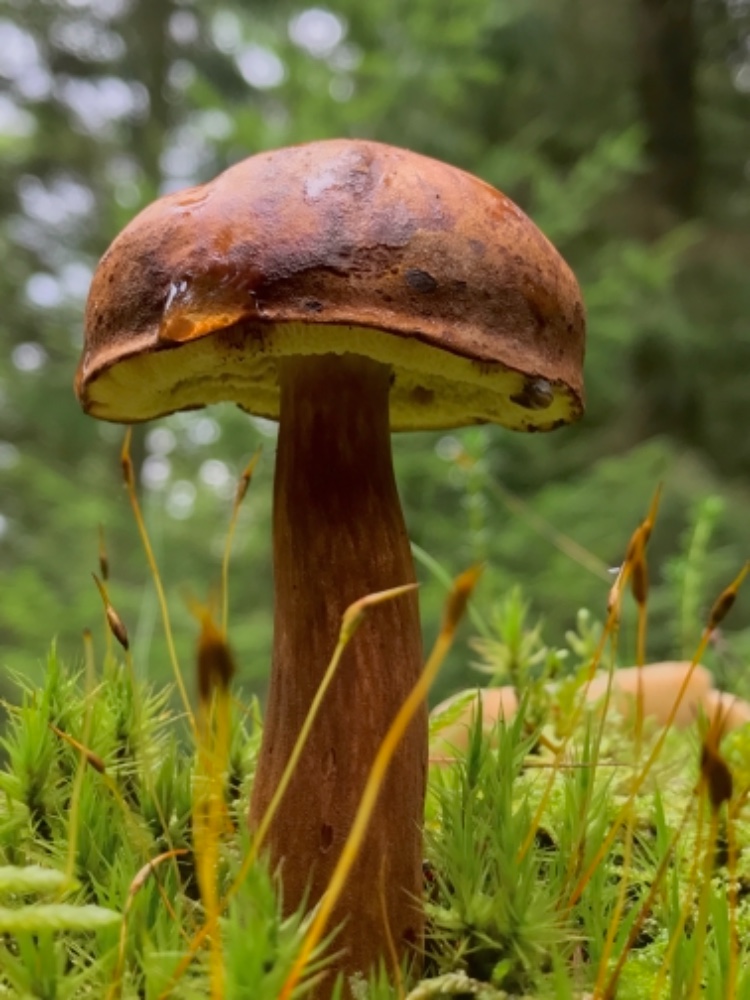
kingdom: Fungi
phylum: Basidiomycota
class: Agaricomycetes
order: Boletales
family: Boletaceae
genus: Imleria
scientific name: Imleria badia
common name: brunstokket rørhat
